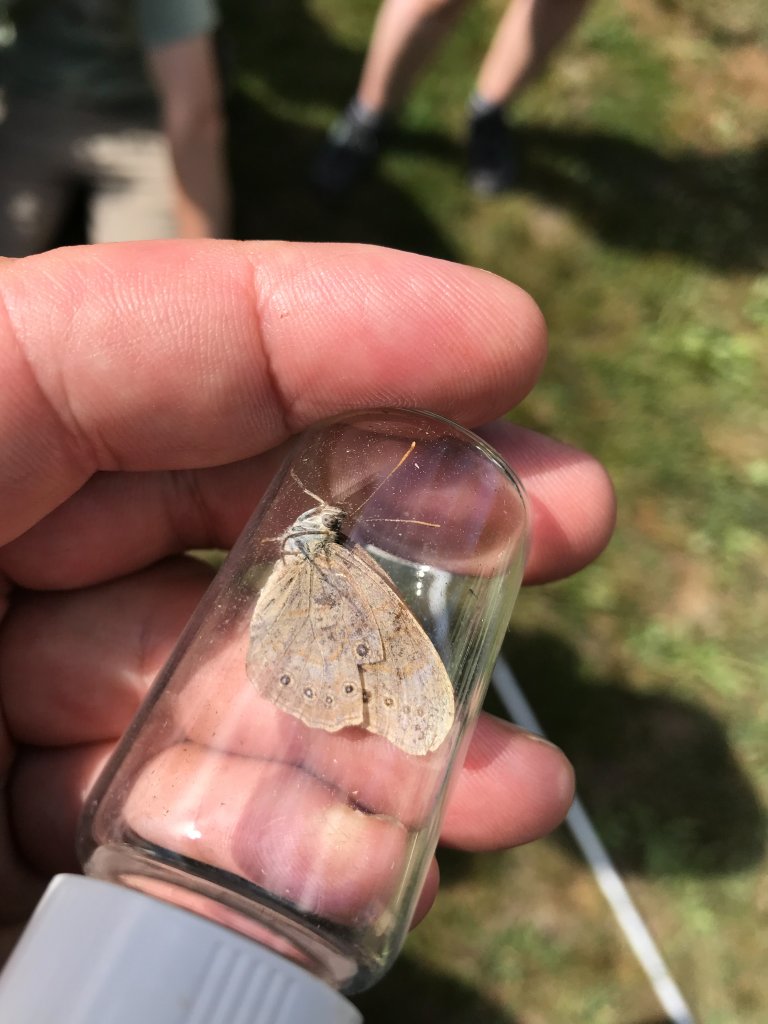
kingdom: Animalia
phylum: Arthropoda
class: Insecta
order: Lepidoptera
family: Nymphalidae
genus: Lethe
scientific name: Lethe eurydice
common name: Eyed Brown
